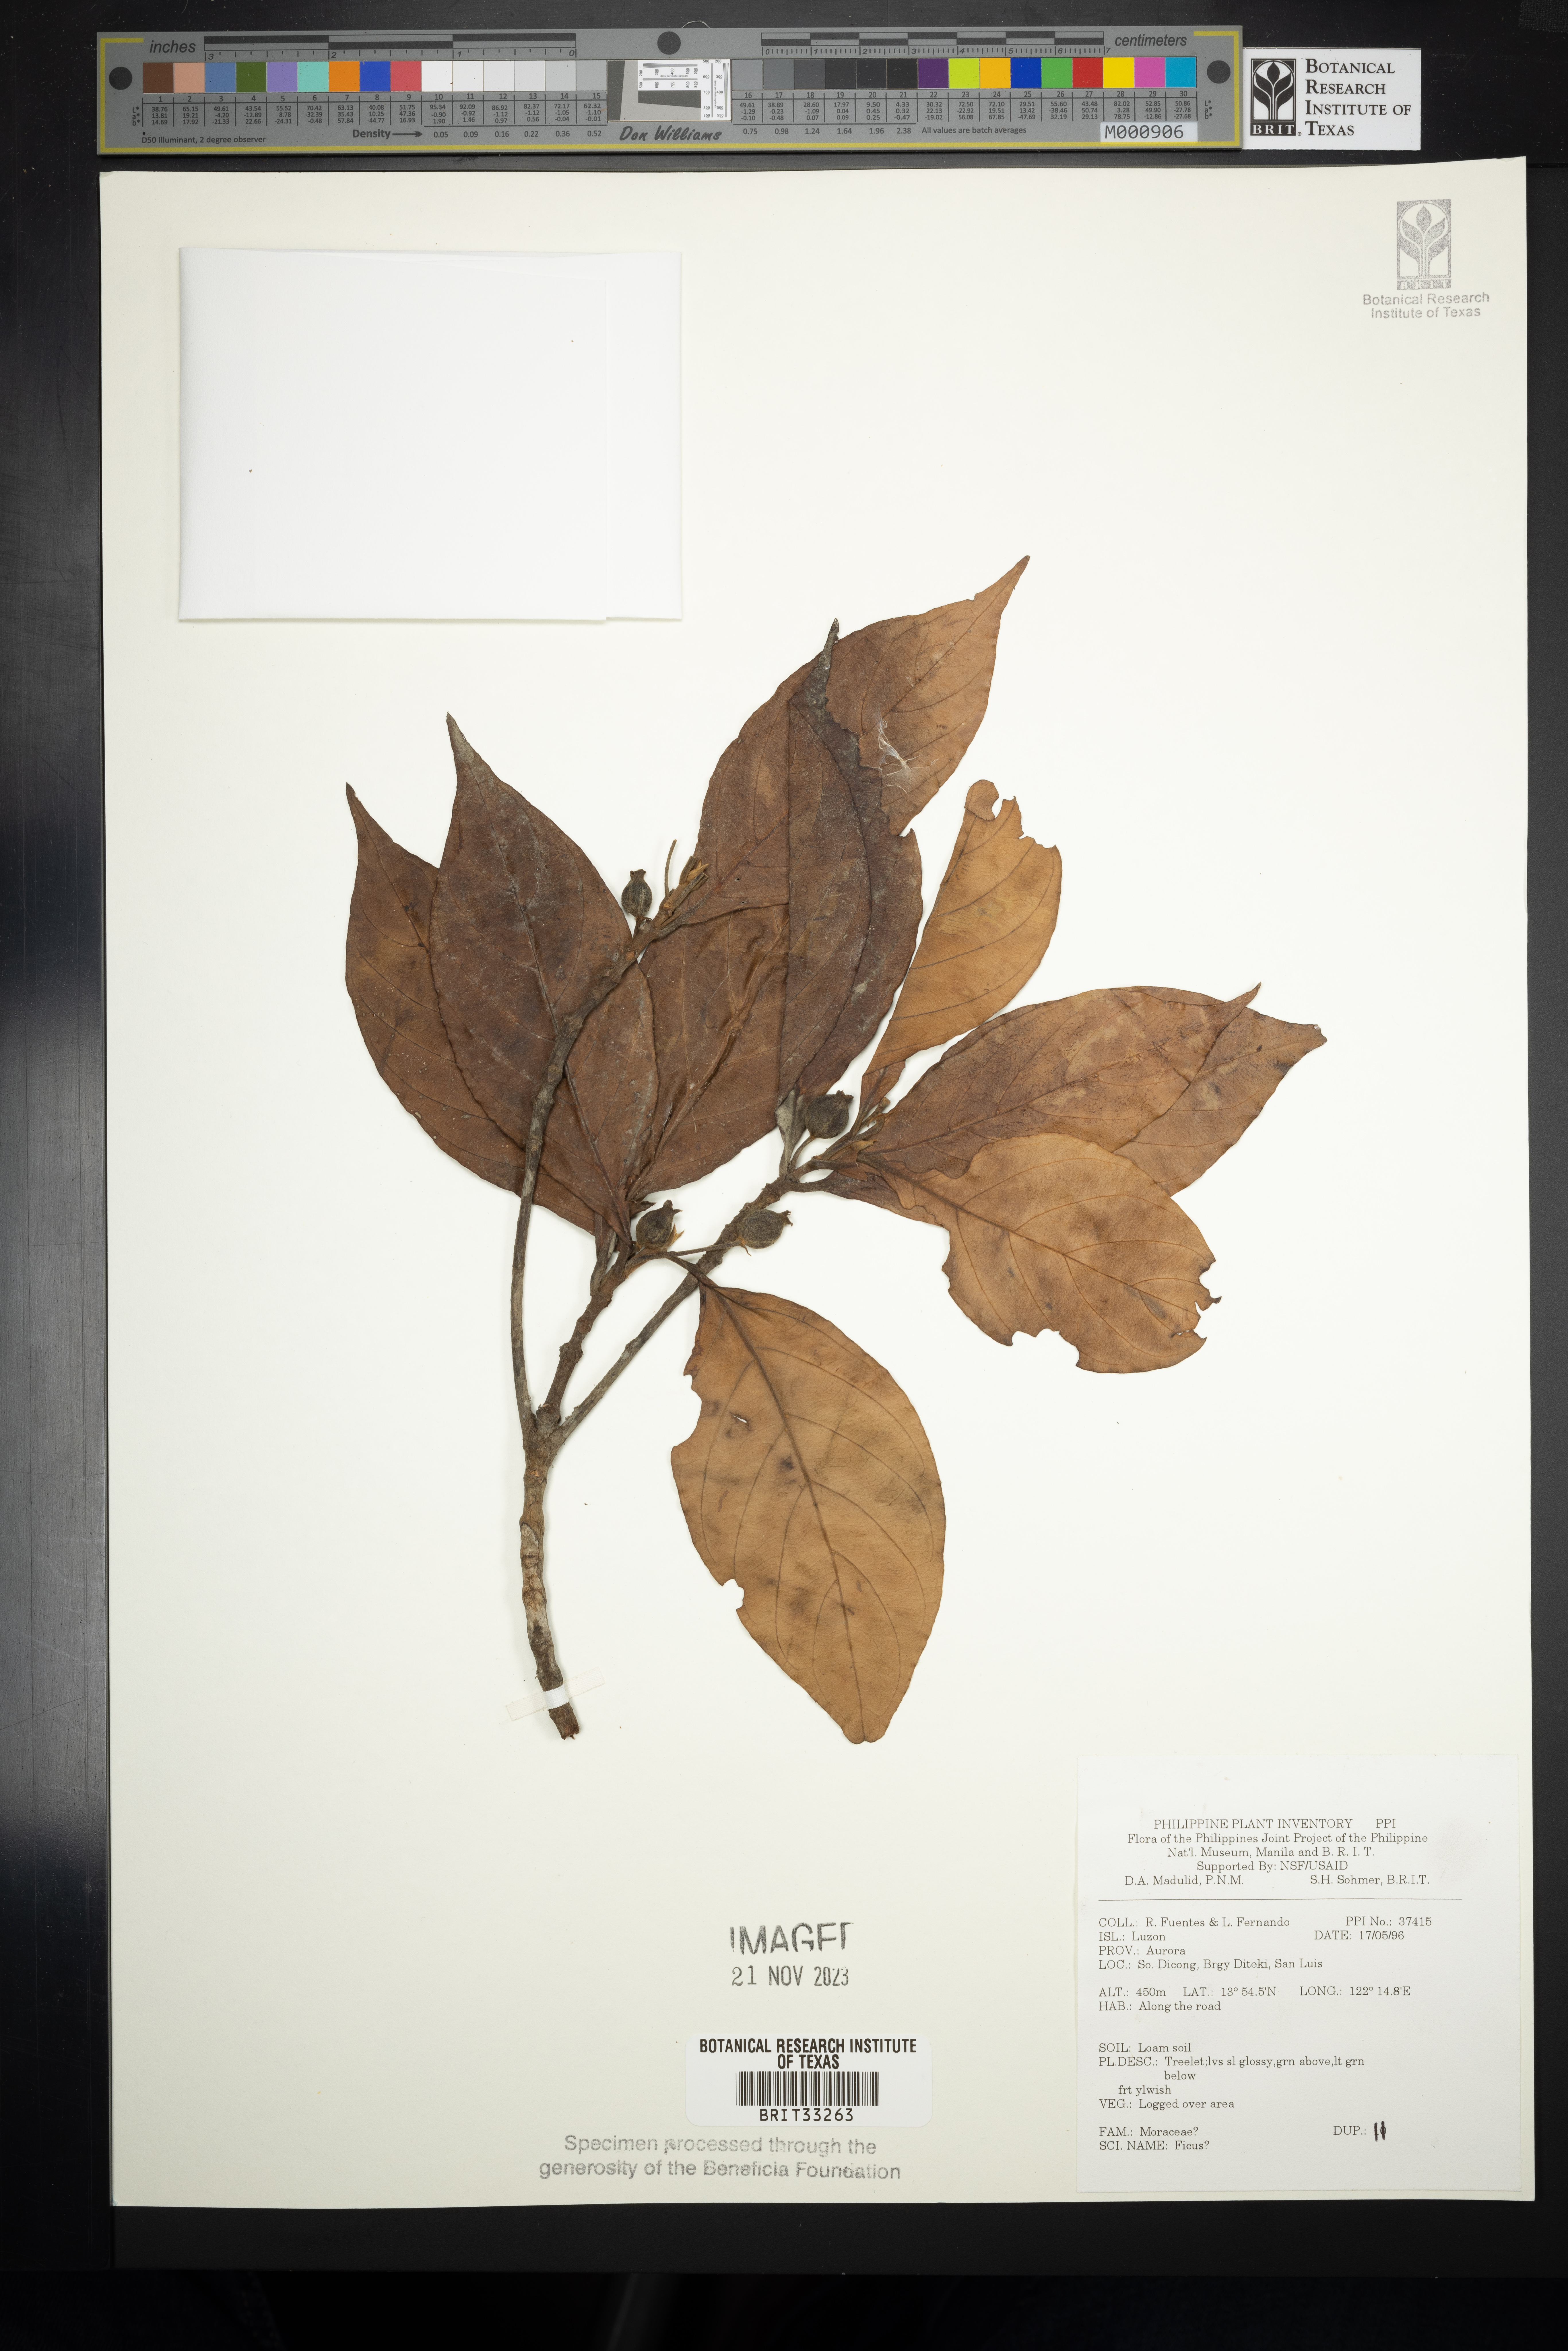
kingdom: Plantae
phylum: Tracheophyta
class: Magnoliopsida
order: Rosales
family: Moraceae
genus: Ficus
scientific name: Ficus
